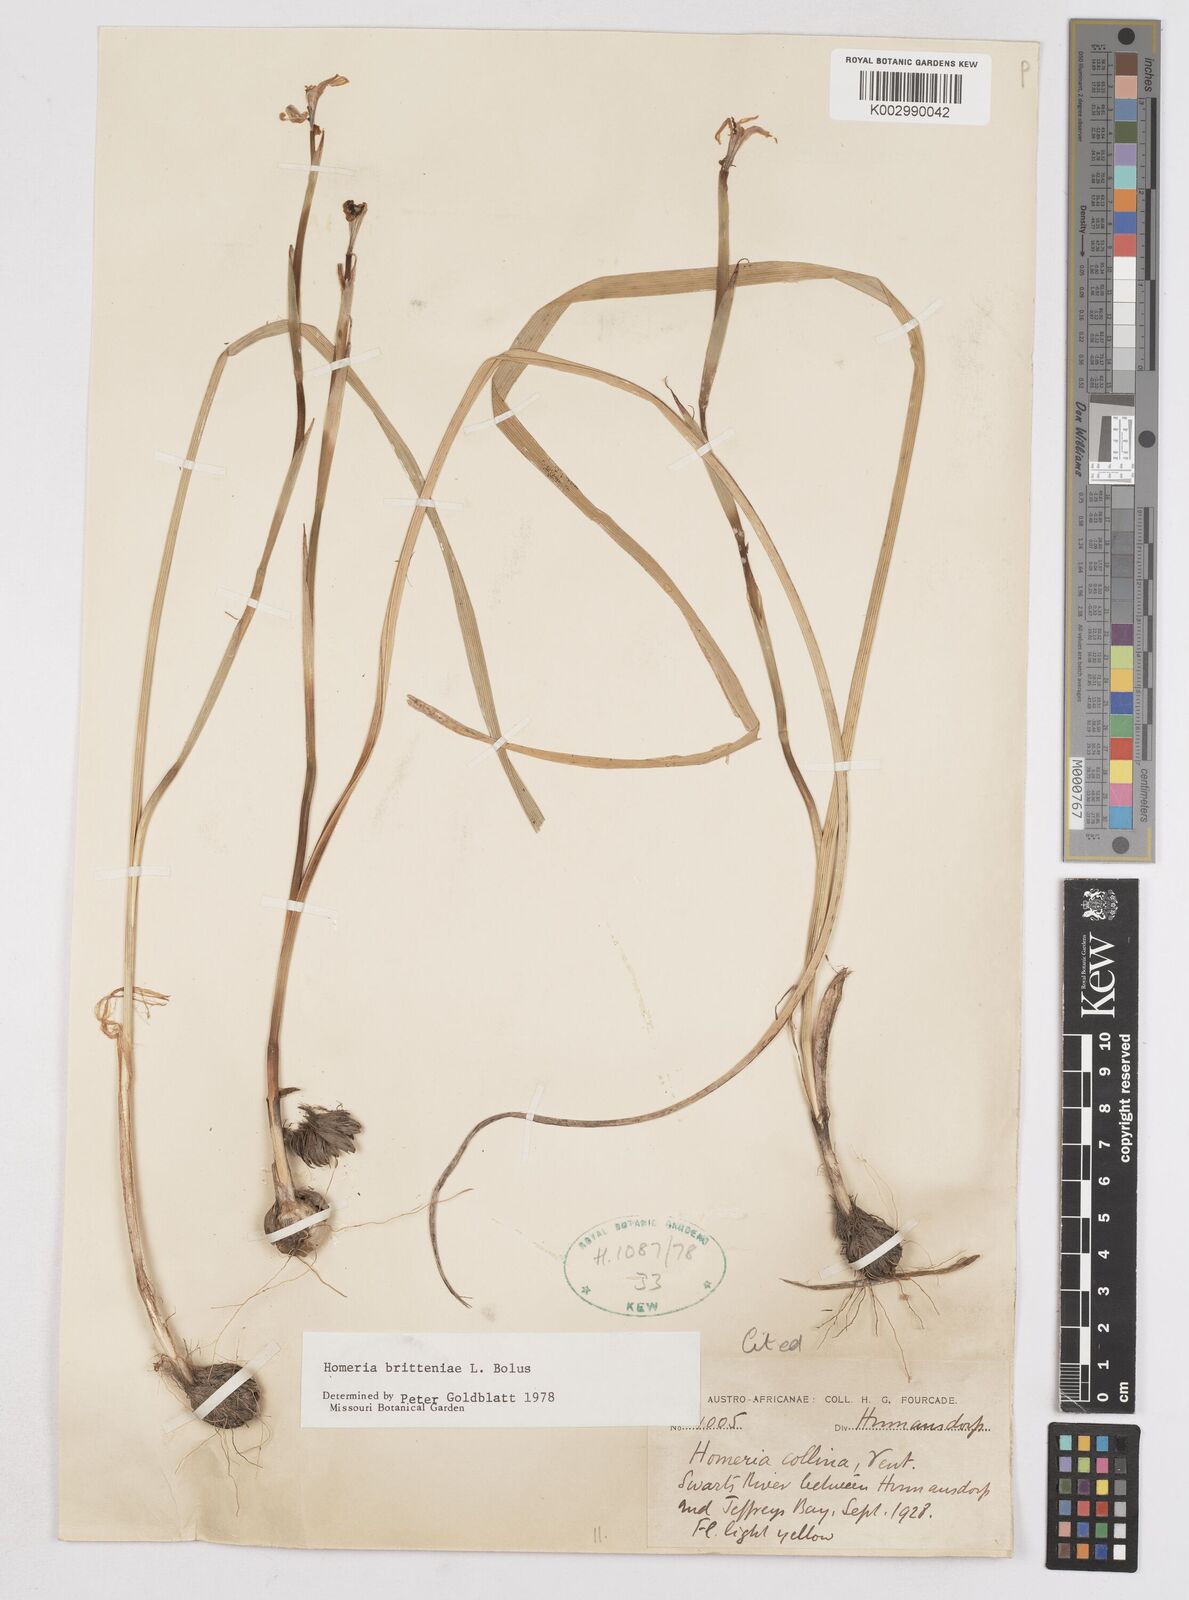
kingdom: Plantae
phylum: Tracheophyta
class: Liliopsida
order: Asparagales
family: Iridaceae
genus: Moraea
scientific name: Moraea britteniae
